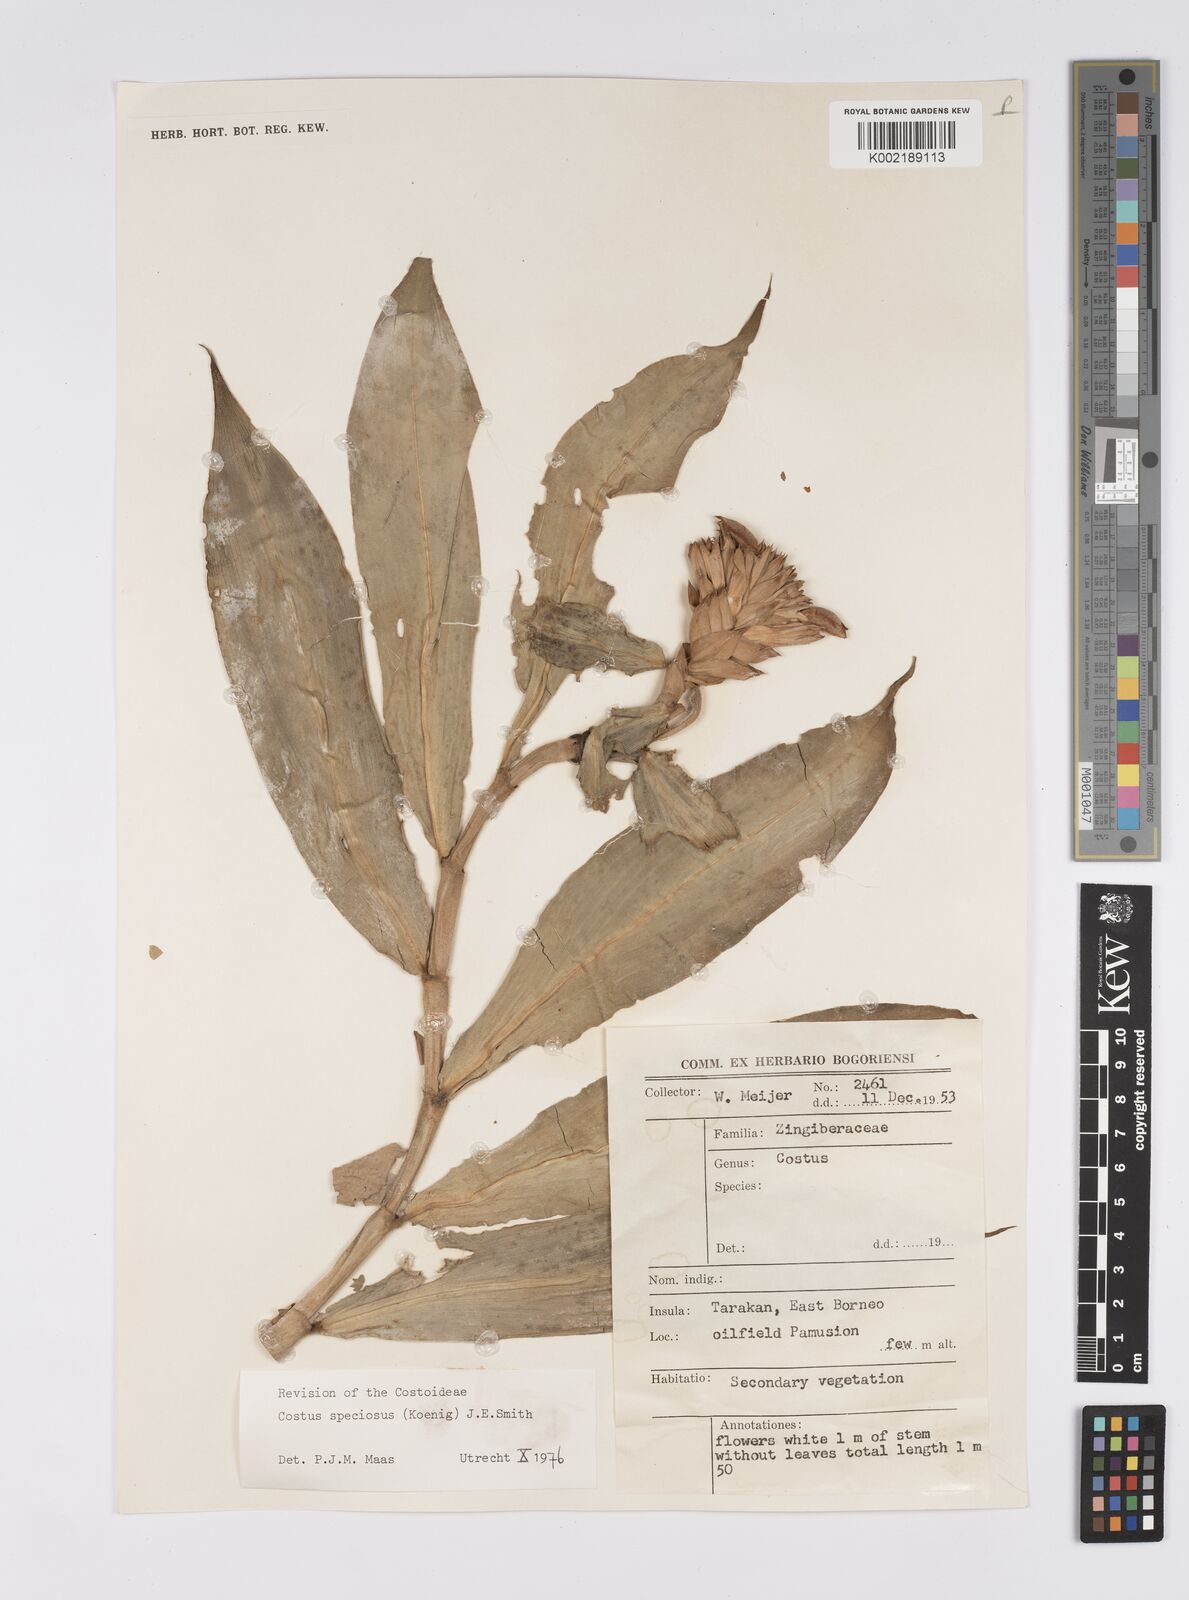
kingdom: Plantae
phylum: Tracheophyta
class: Liliopsida
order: Zingiberales
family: Costaceae
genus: Hellenia
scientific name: Hellenia speciosa
